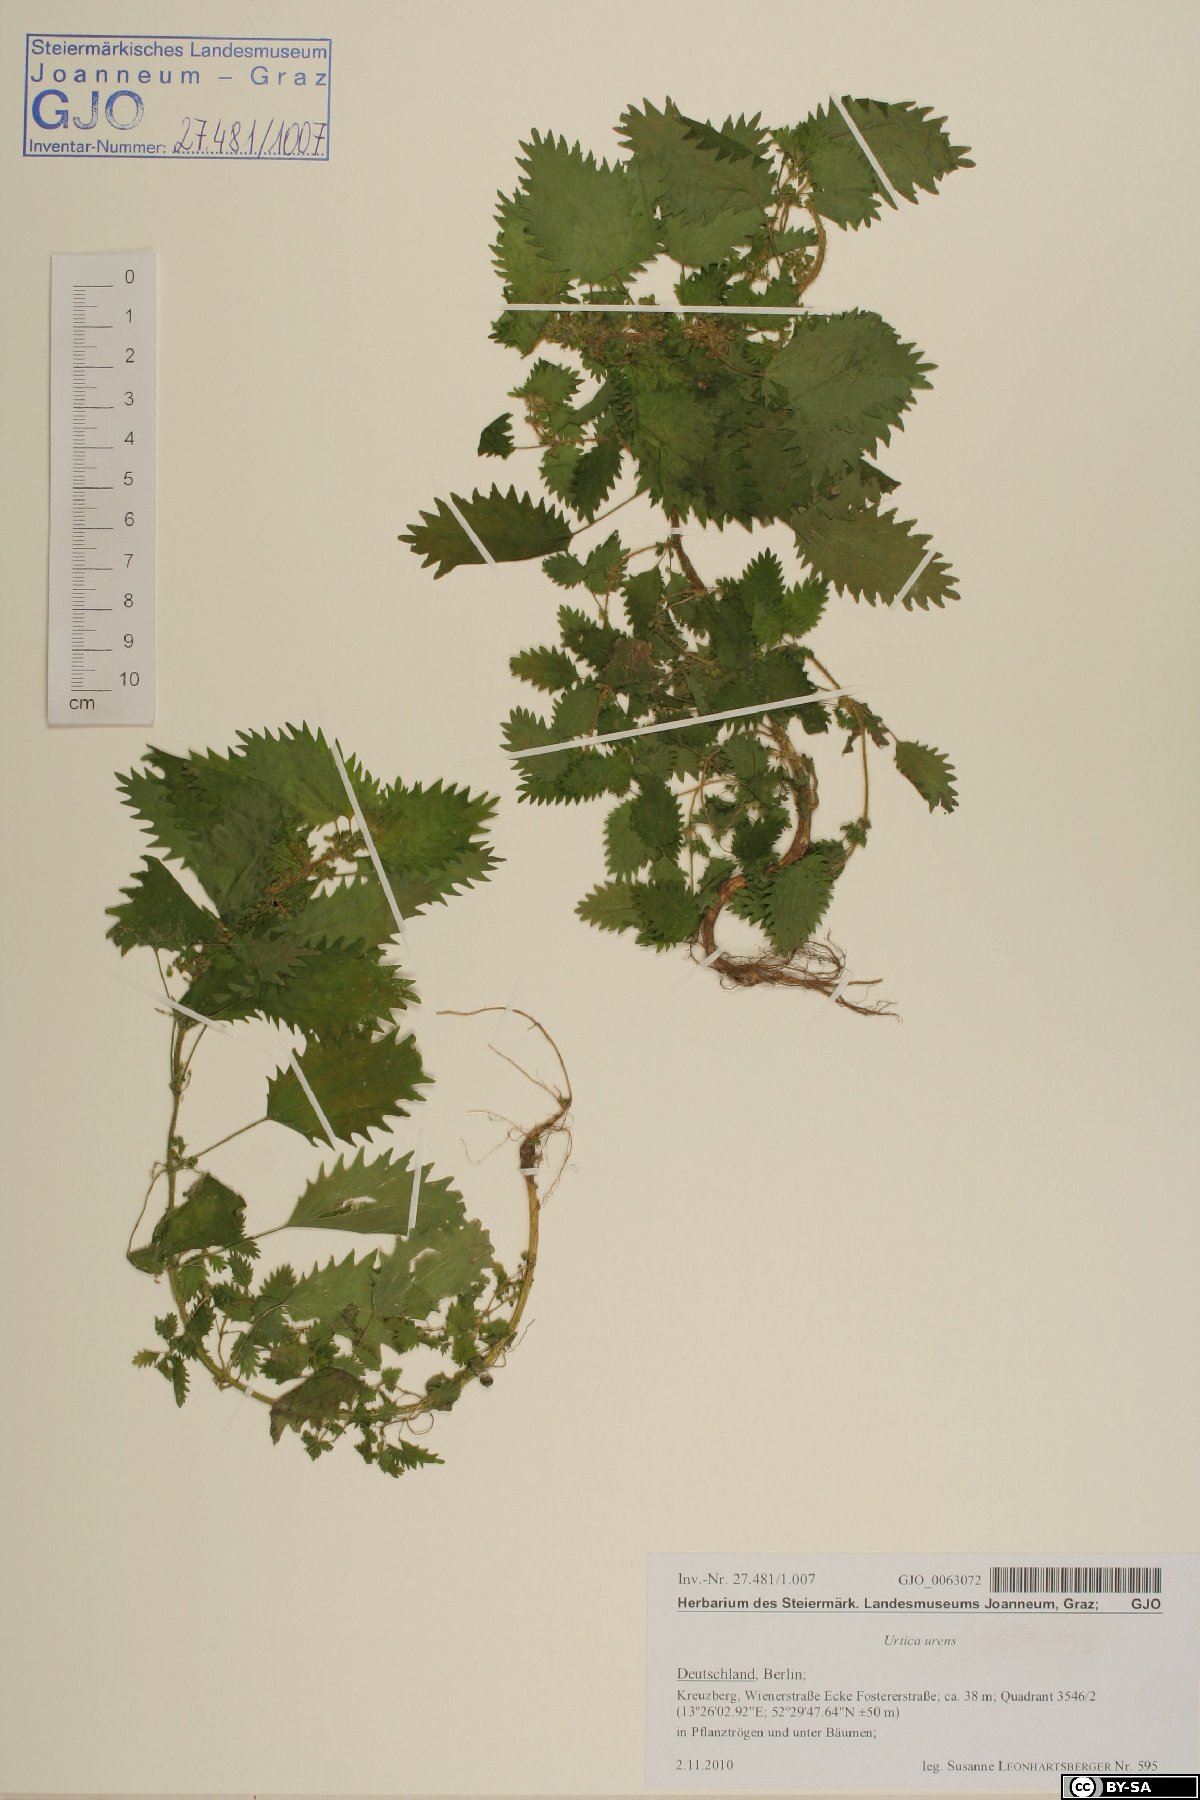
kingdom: Plantae
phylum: Tracheophyta
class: Magnoliopsida
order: Rosales
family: Urticaceae
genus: Urtica
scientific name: Urtica urens
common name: Dwarf nettle
